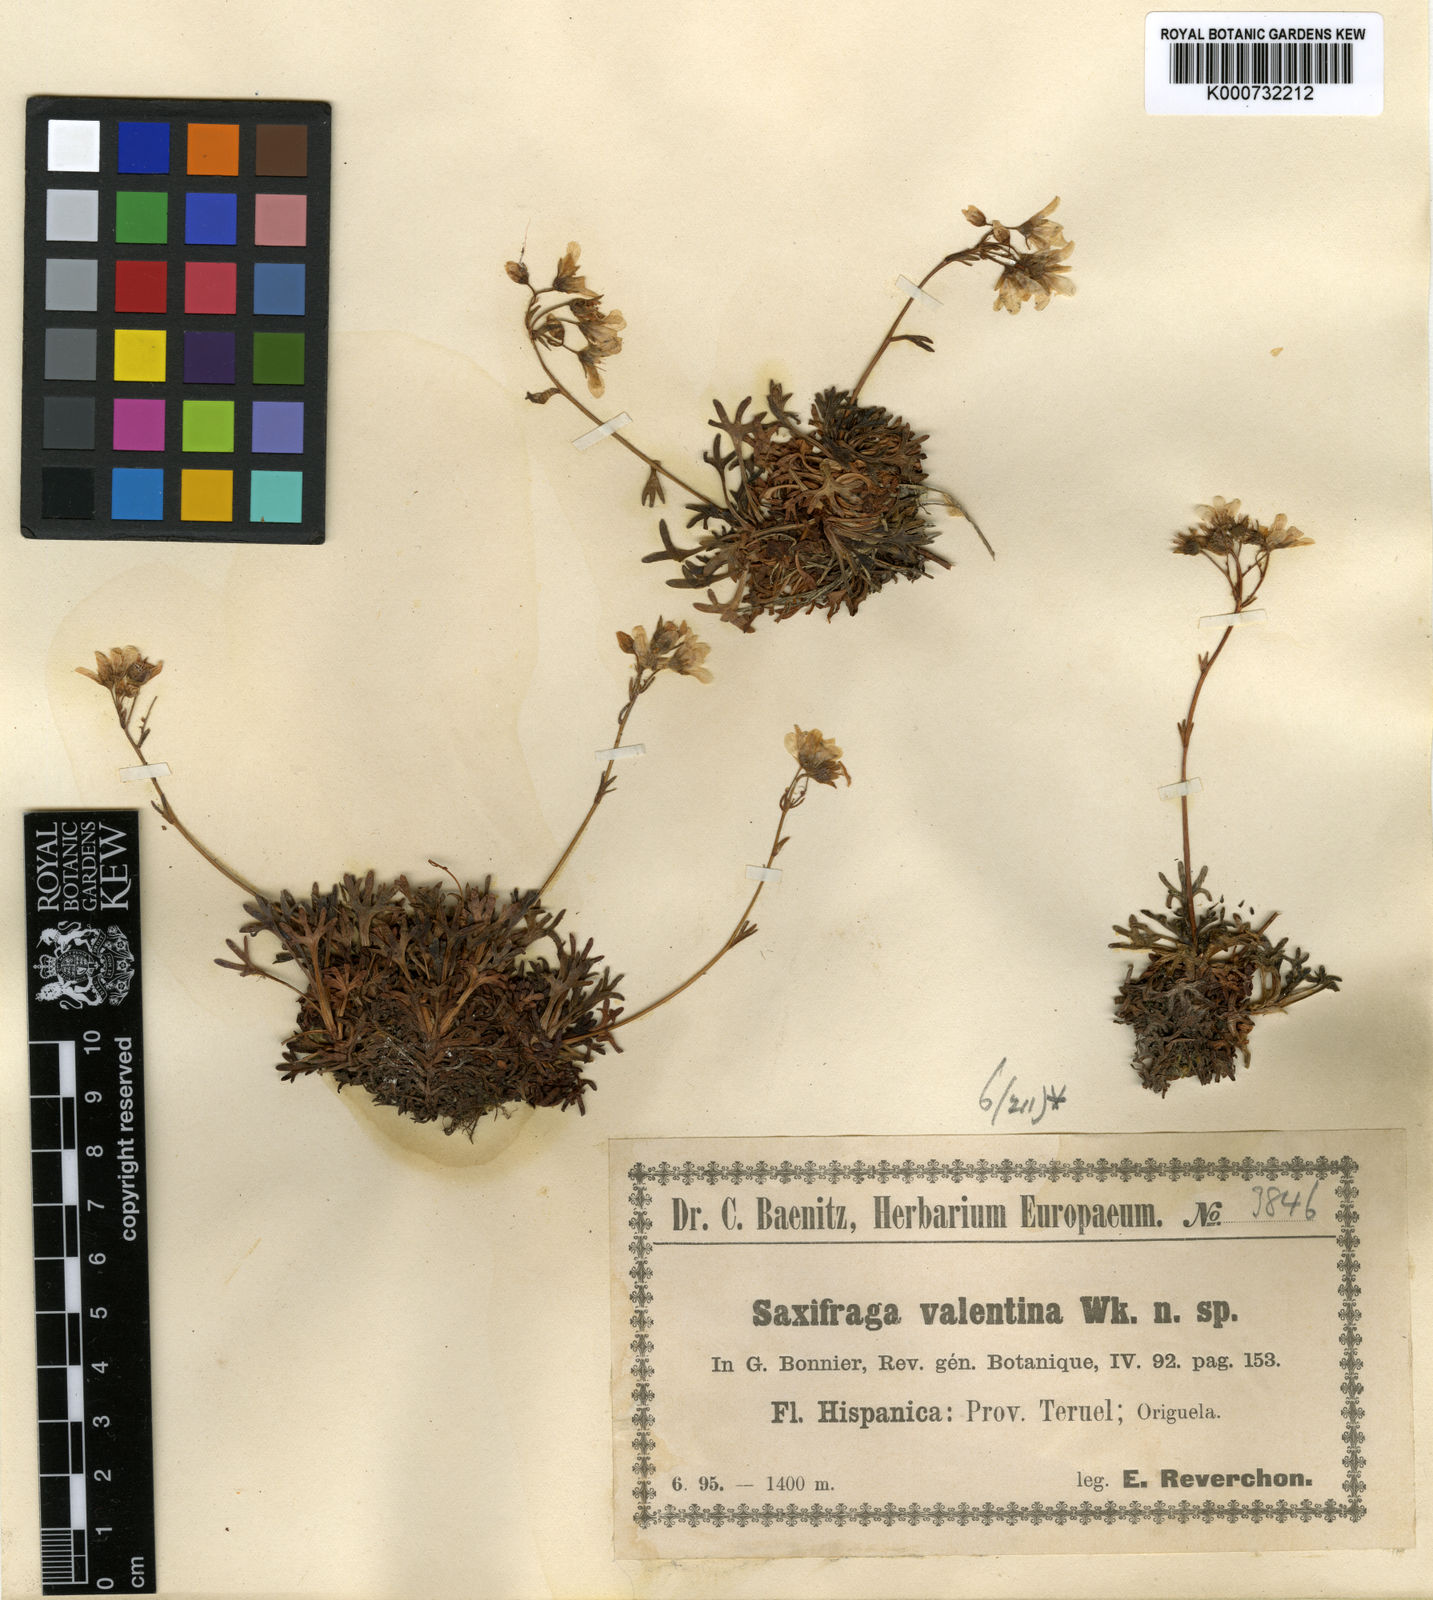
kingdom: Plantae
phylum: Tracheophyta
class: Magnoliopsida
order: Saxifragales
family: Saxifragaceae
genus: Saxifraga
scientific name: Saxifraga cuneata
